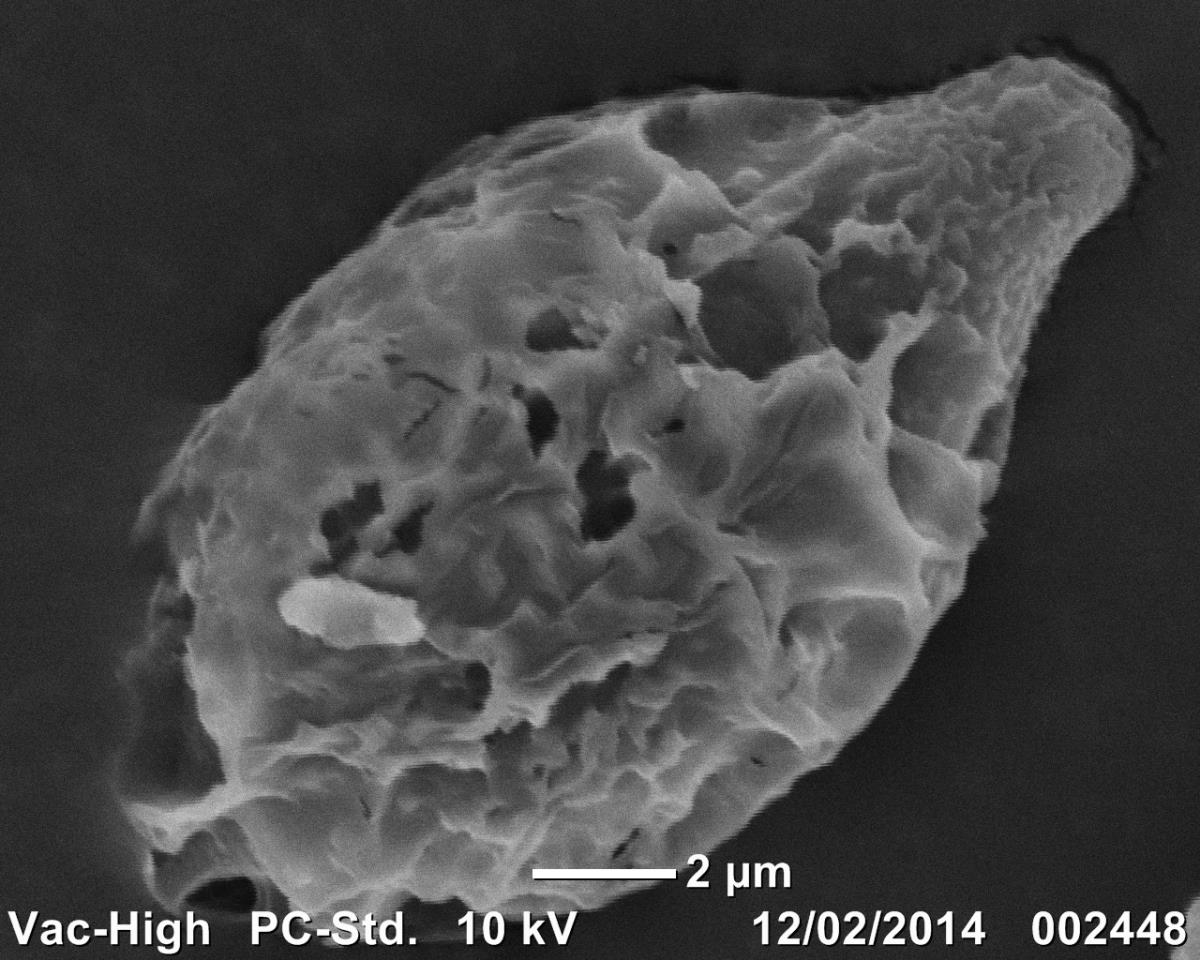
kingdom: Fungi
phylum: Basidiomycota
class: Agaricomycetes
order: Agaricales
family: Bolbitiaceae
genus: Descomyces
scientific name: Descomyces
